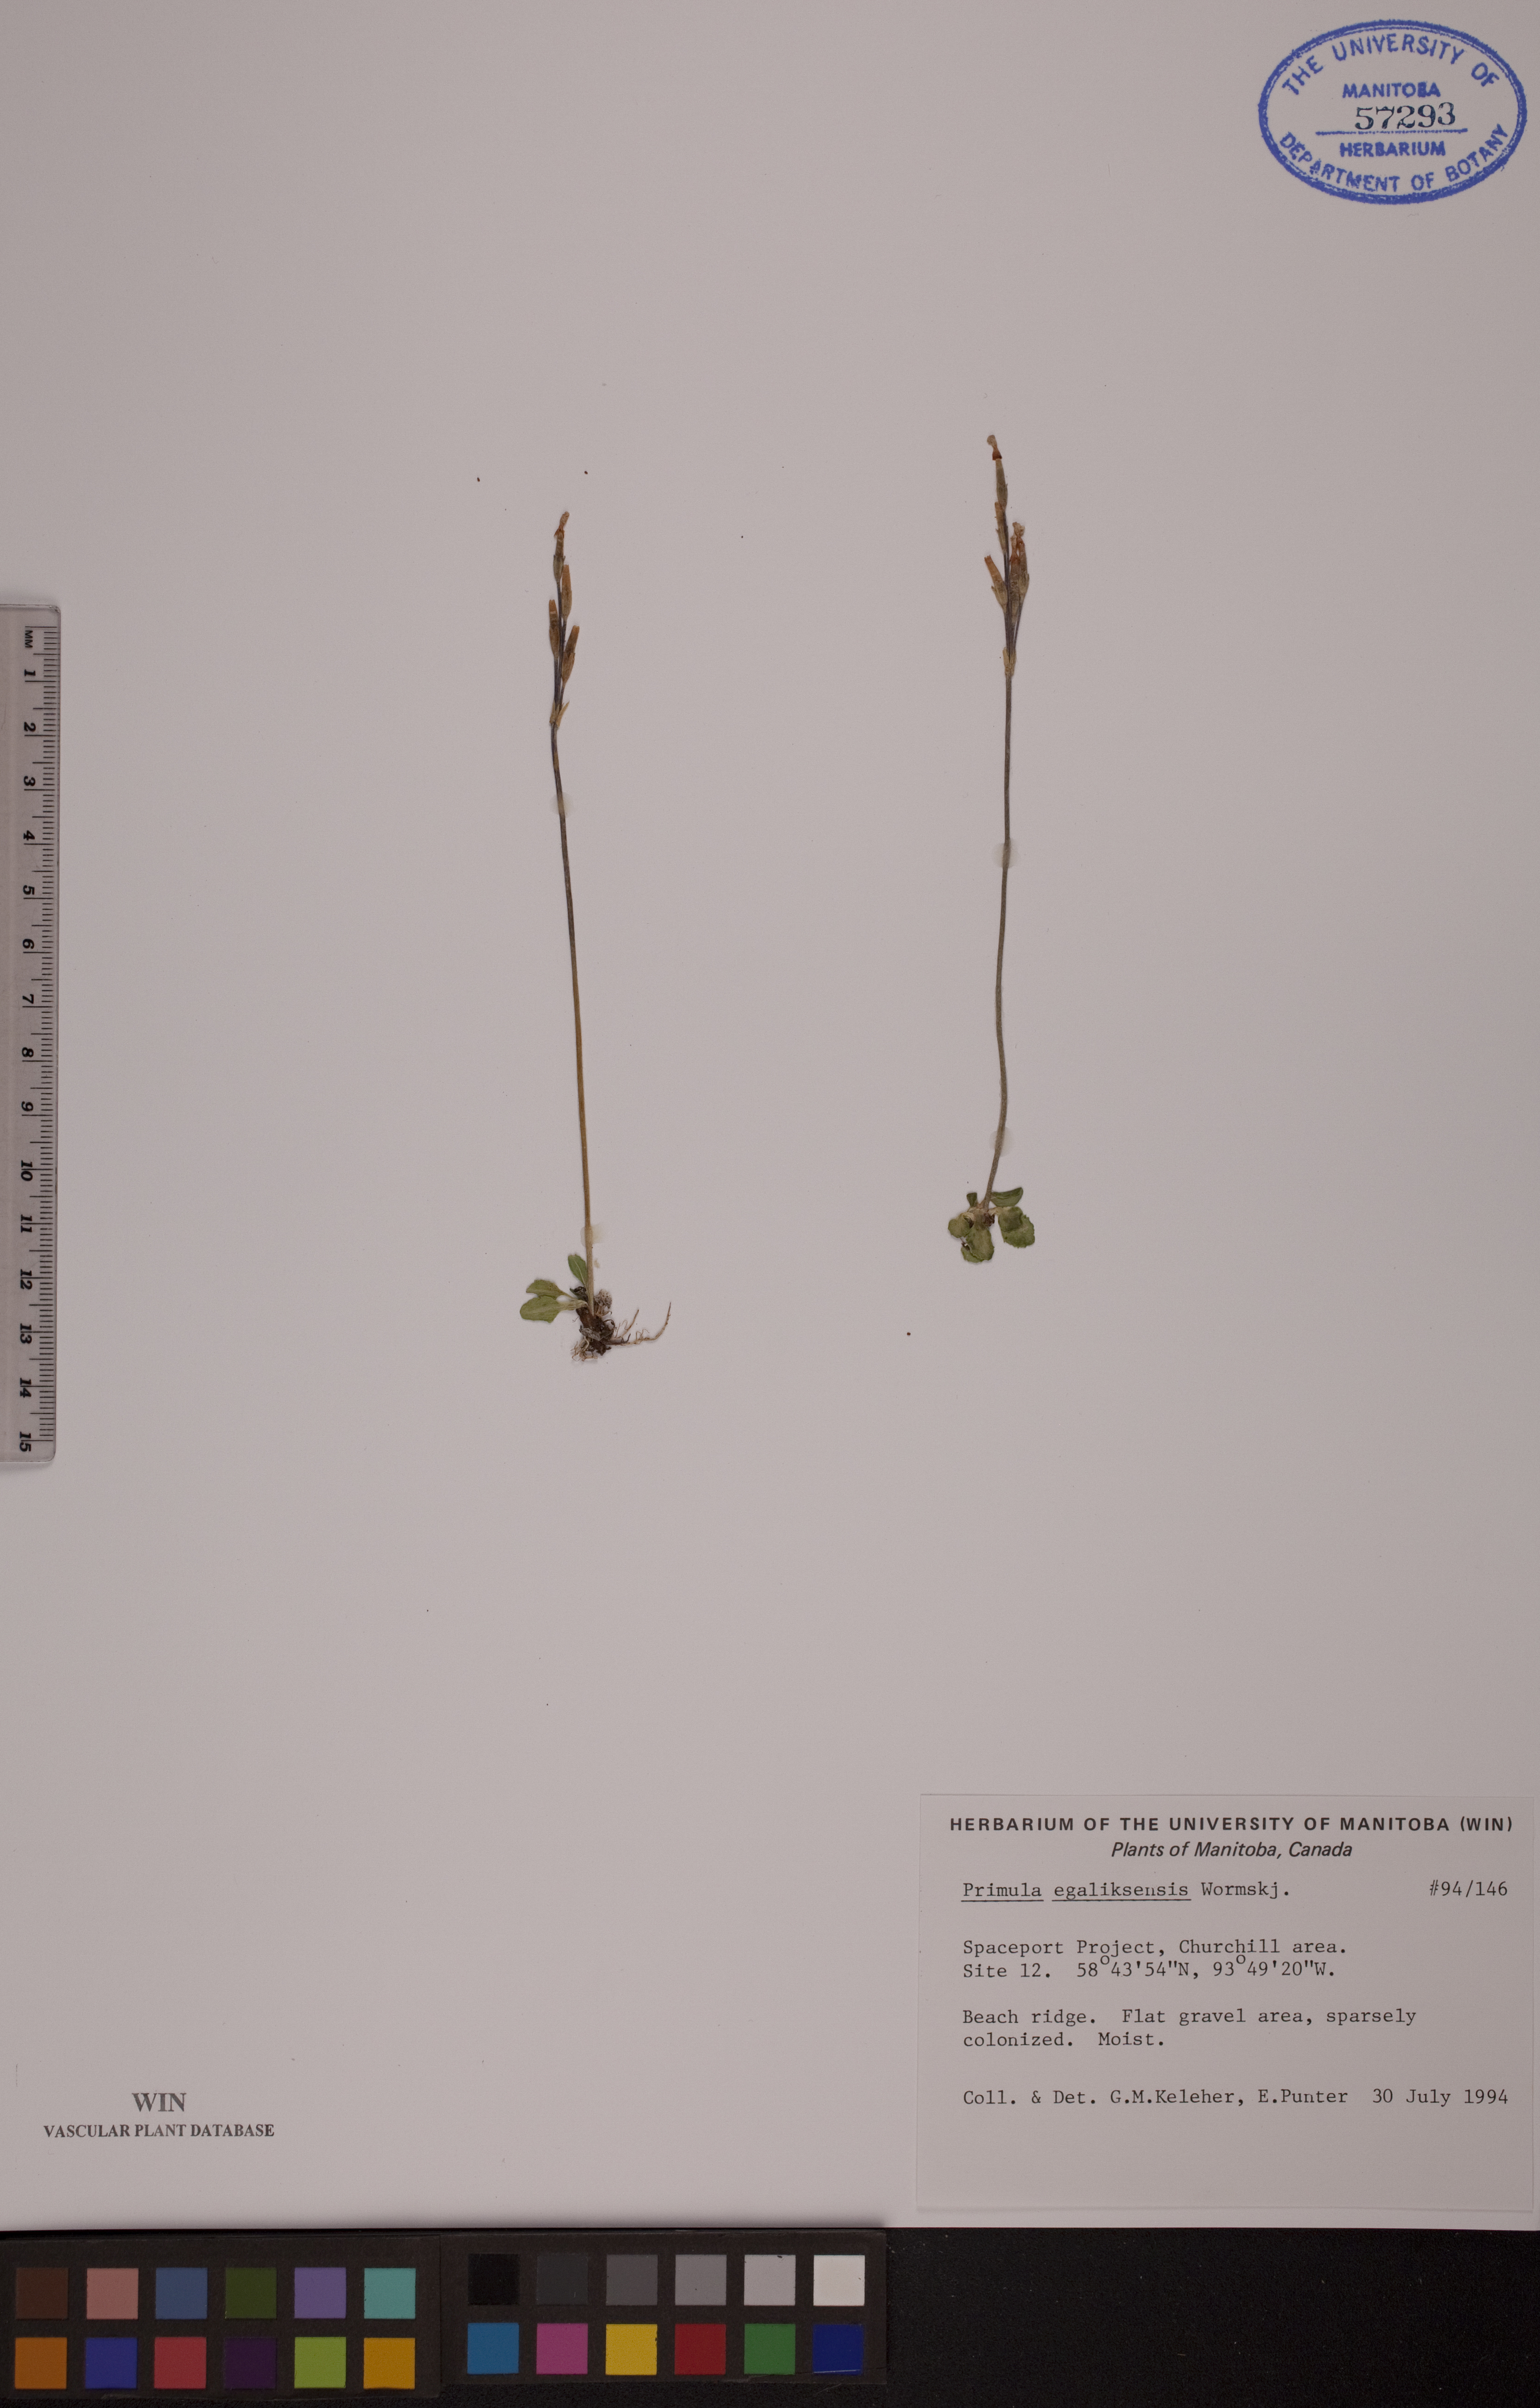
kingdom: Plantae
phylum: Tracheophyta
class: Magnoliopsida
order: Ericales
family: Primulaceae
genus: Primula
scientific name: Primula egaliksensis
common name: Greenland primrose
